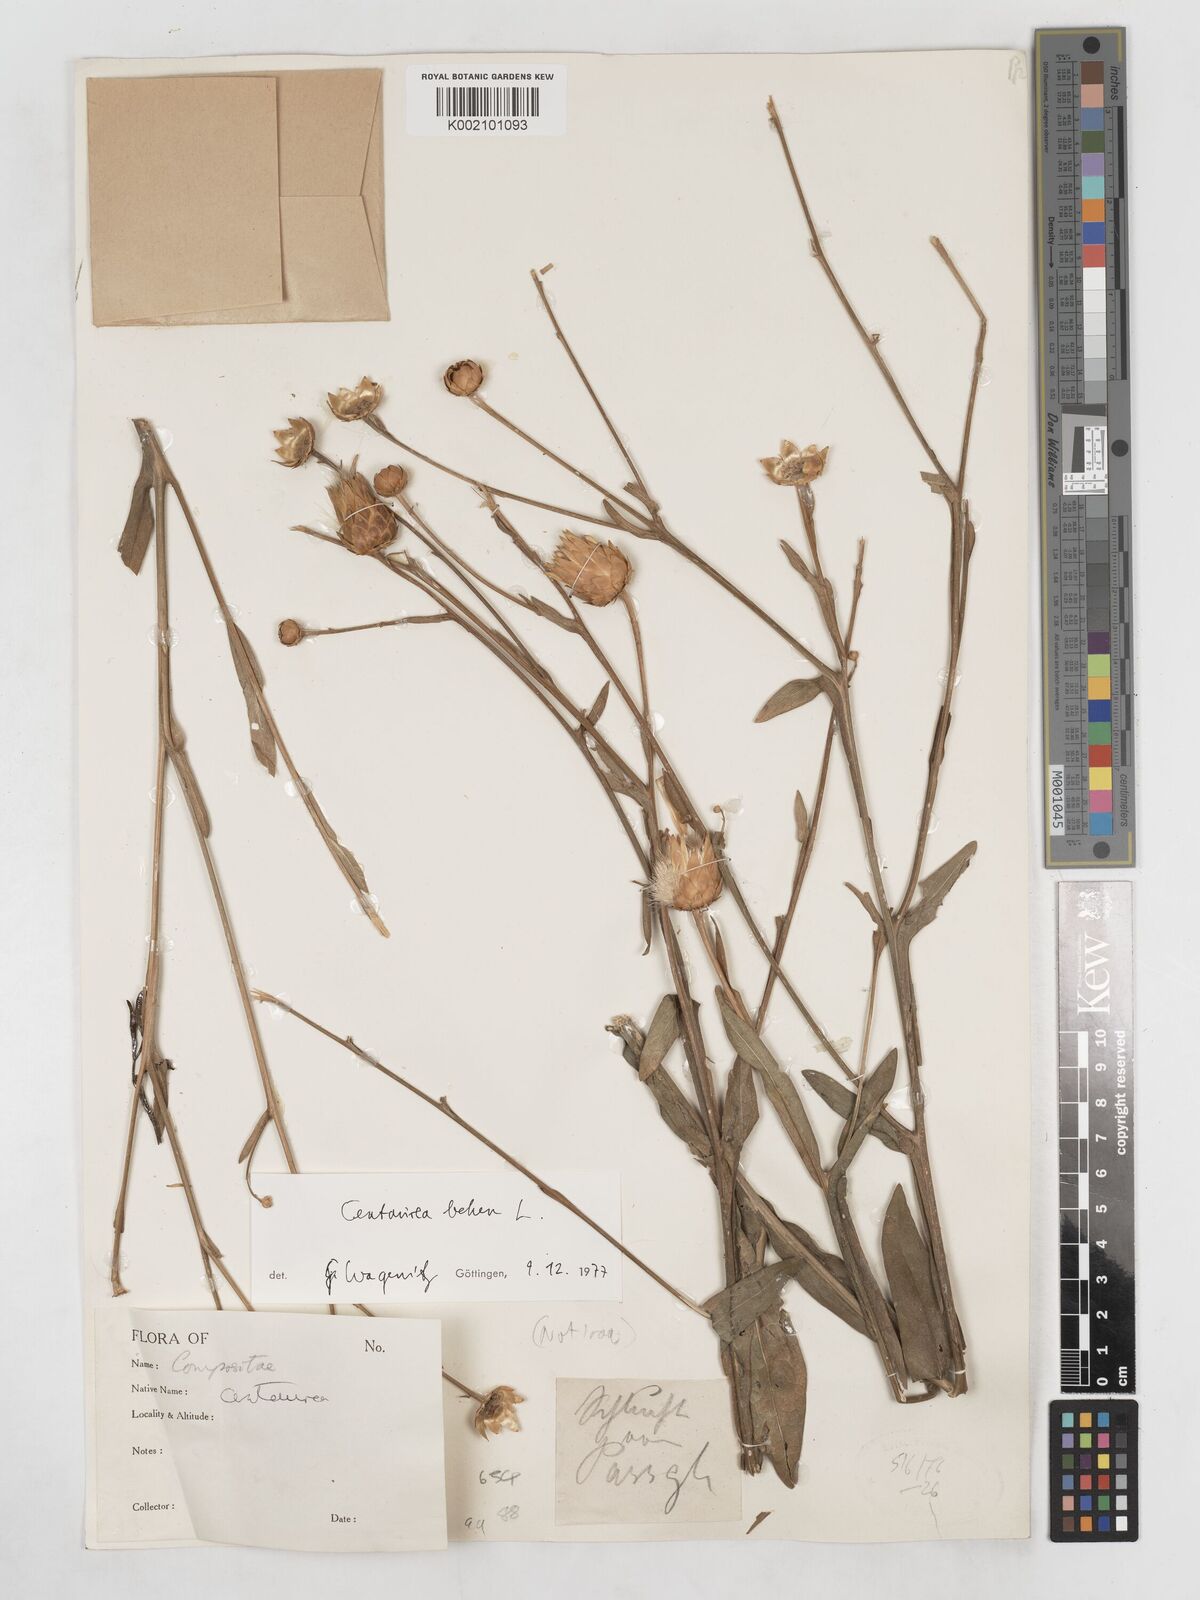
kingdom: Plantae
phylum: Tracheophyta
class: Magnoliopsida
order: Asterales
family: Asteraceae
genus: Centaurea
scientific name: Centaurea behen
